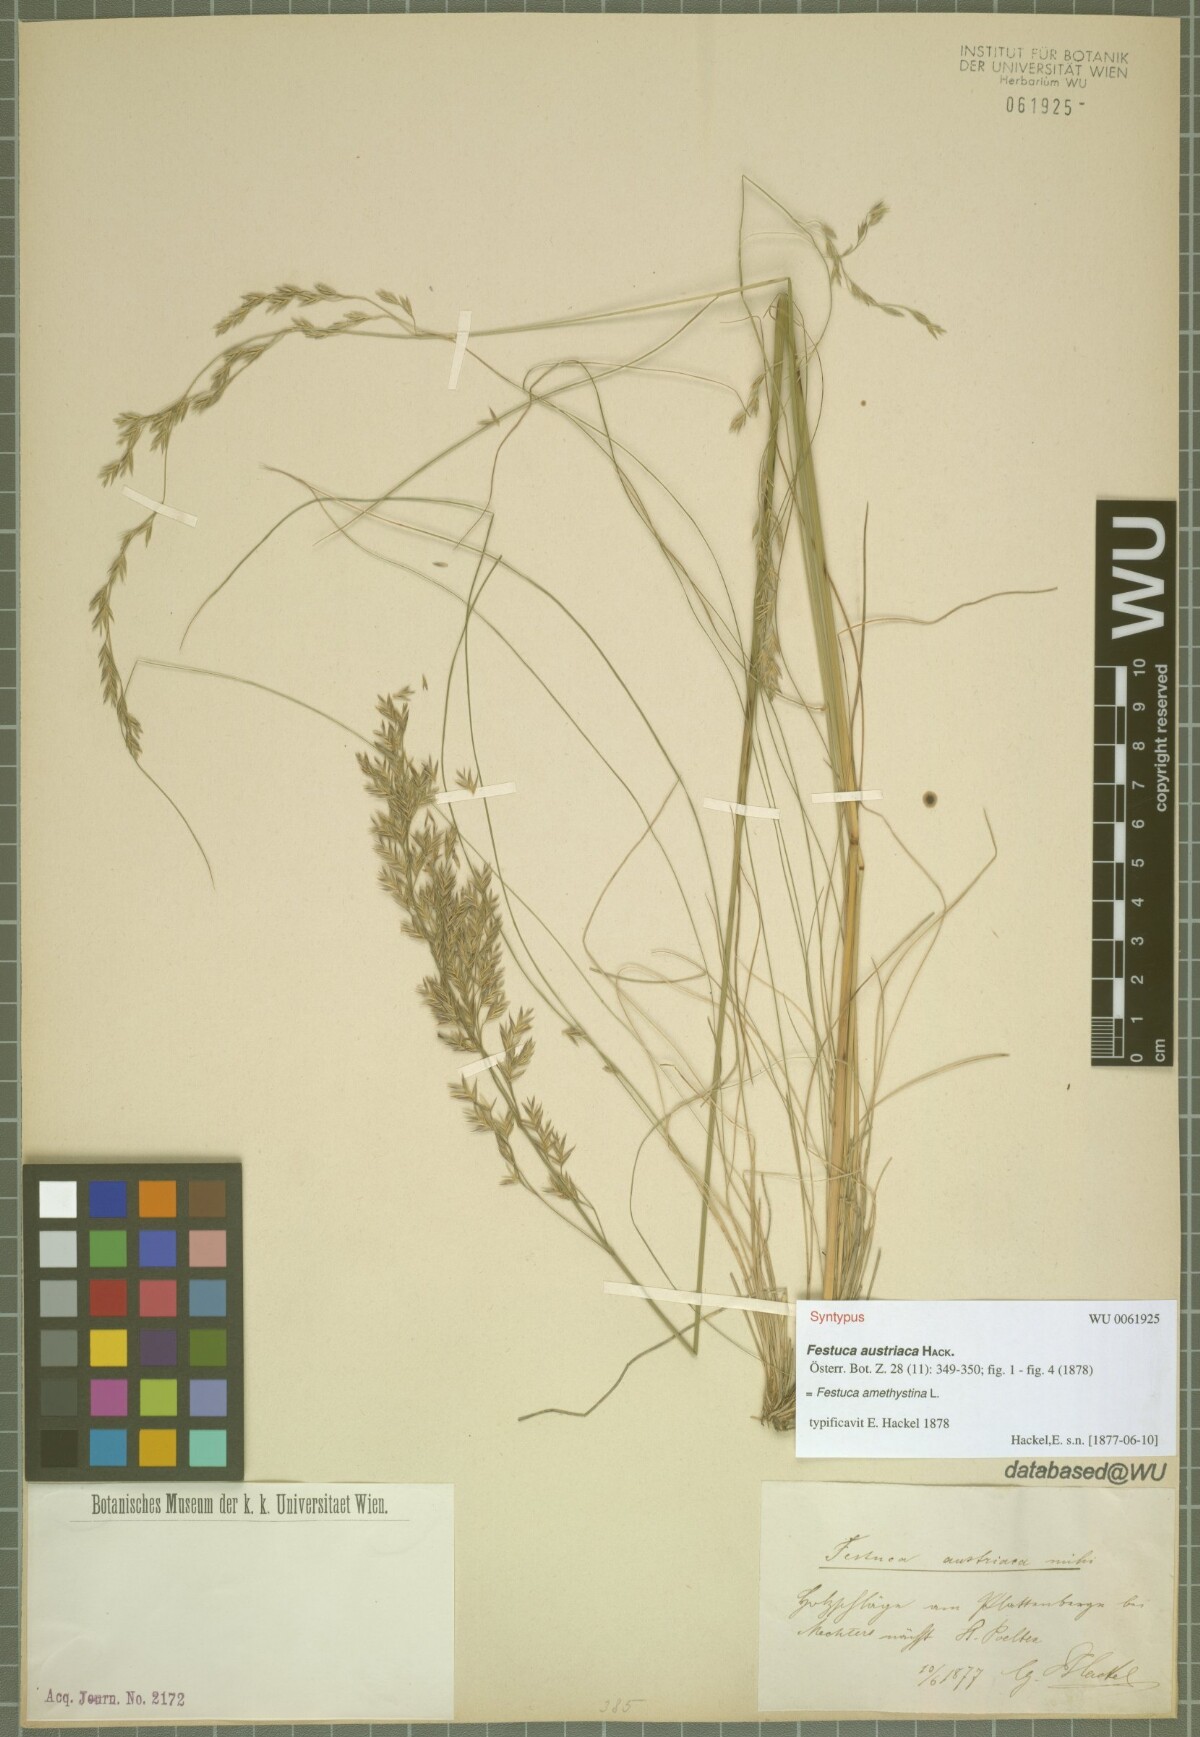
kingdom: Plantae
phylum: Tracheophyta
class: Liliopsida
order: Poales
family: Poaceae
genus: Festuca
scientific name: Festuca amethystina
